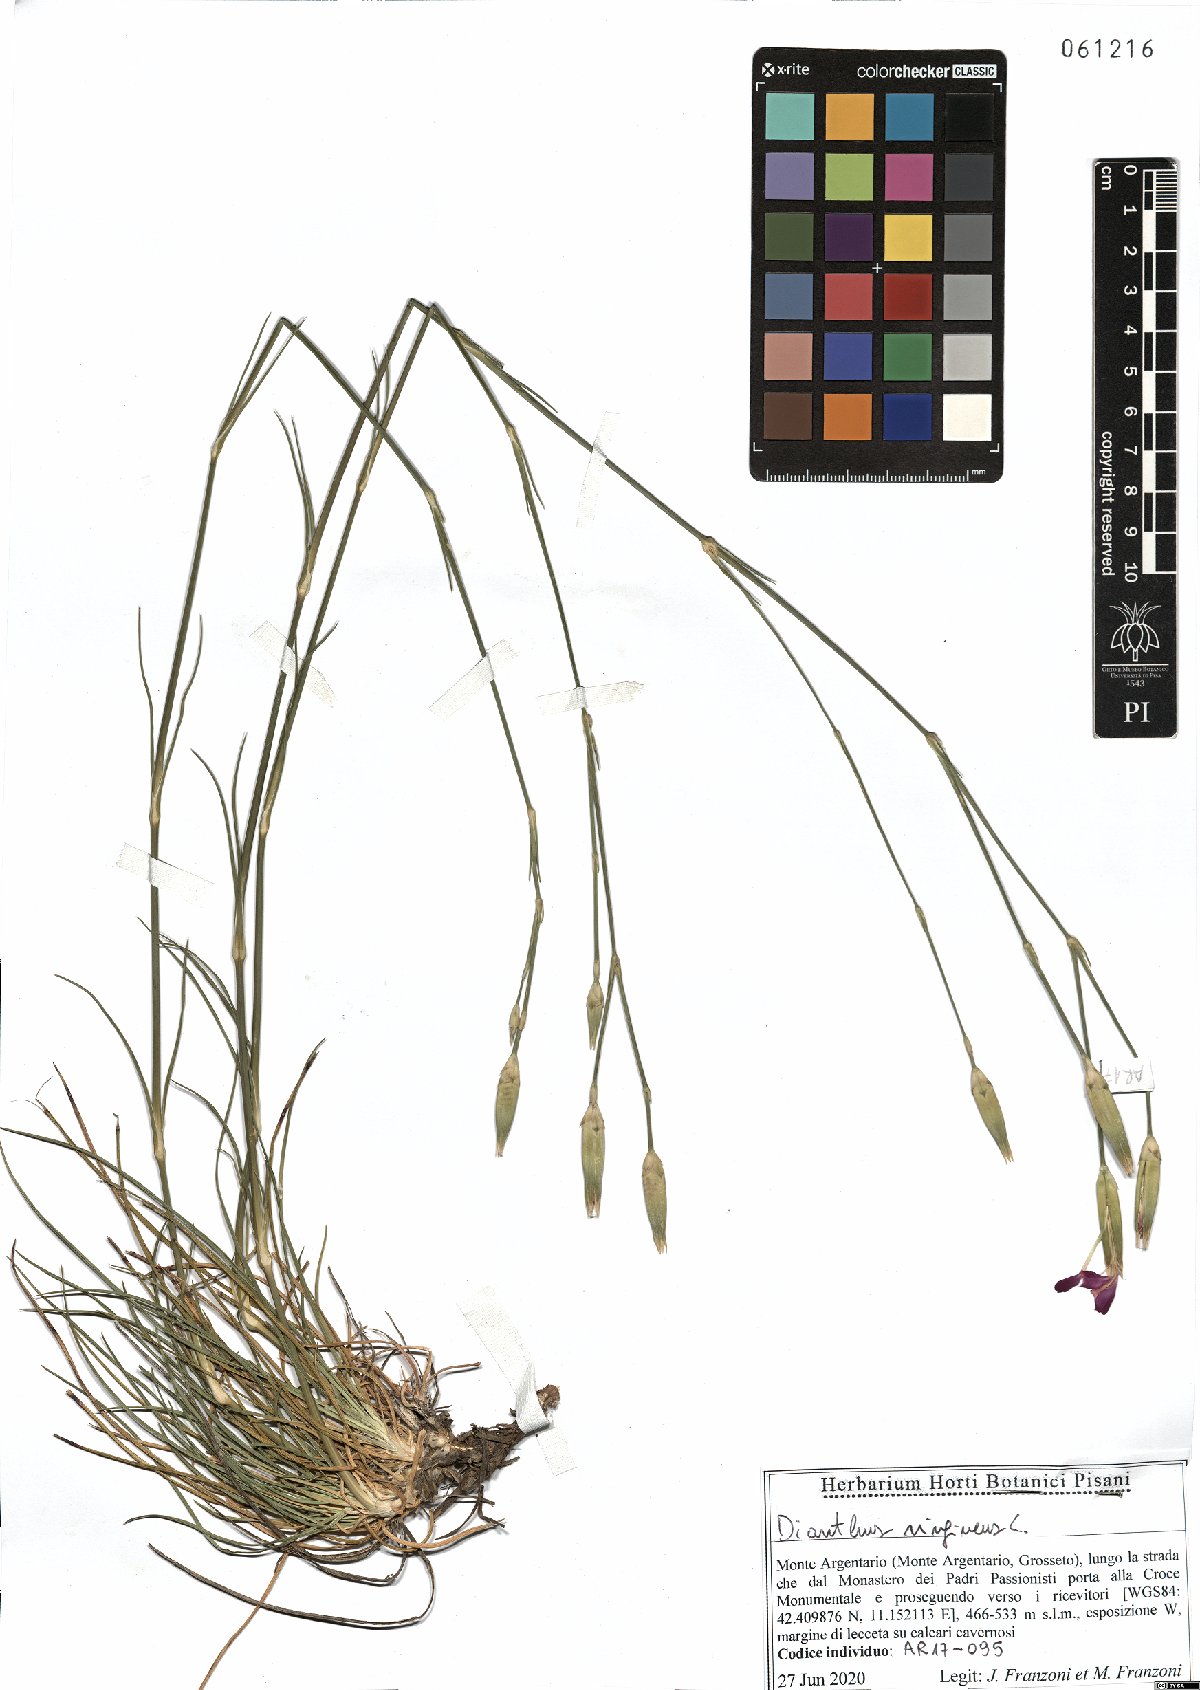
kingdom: Plantae
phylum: Tracheophyta
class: Magnoliopsida
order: Caryophyllales
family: Caryophyllaceae
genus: Dianthus
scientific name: Dianthus virgineus
